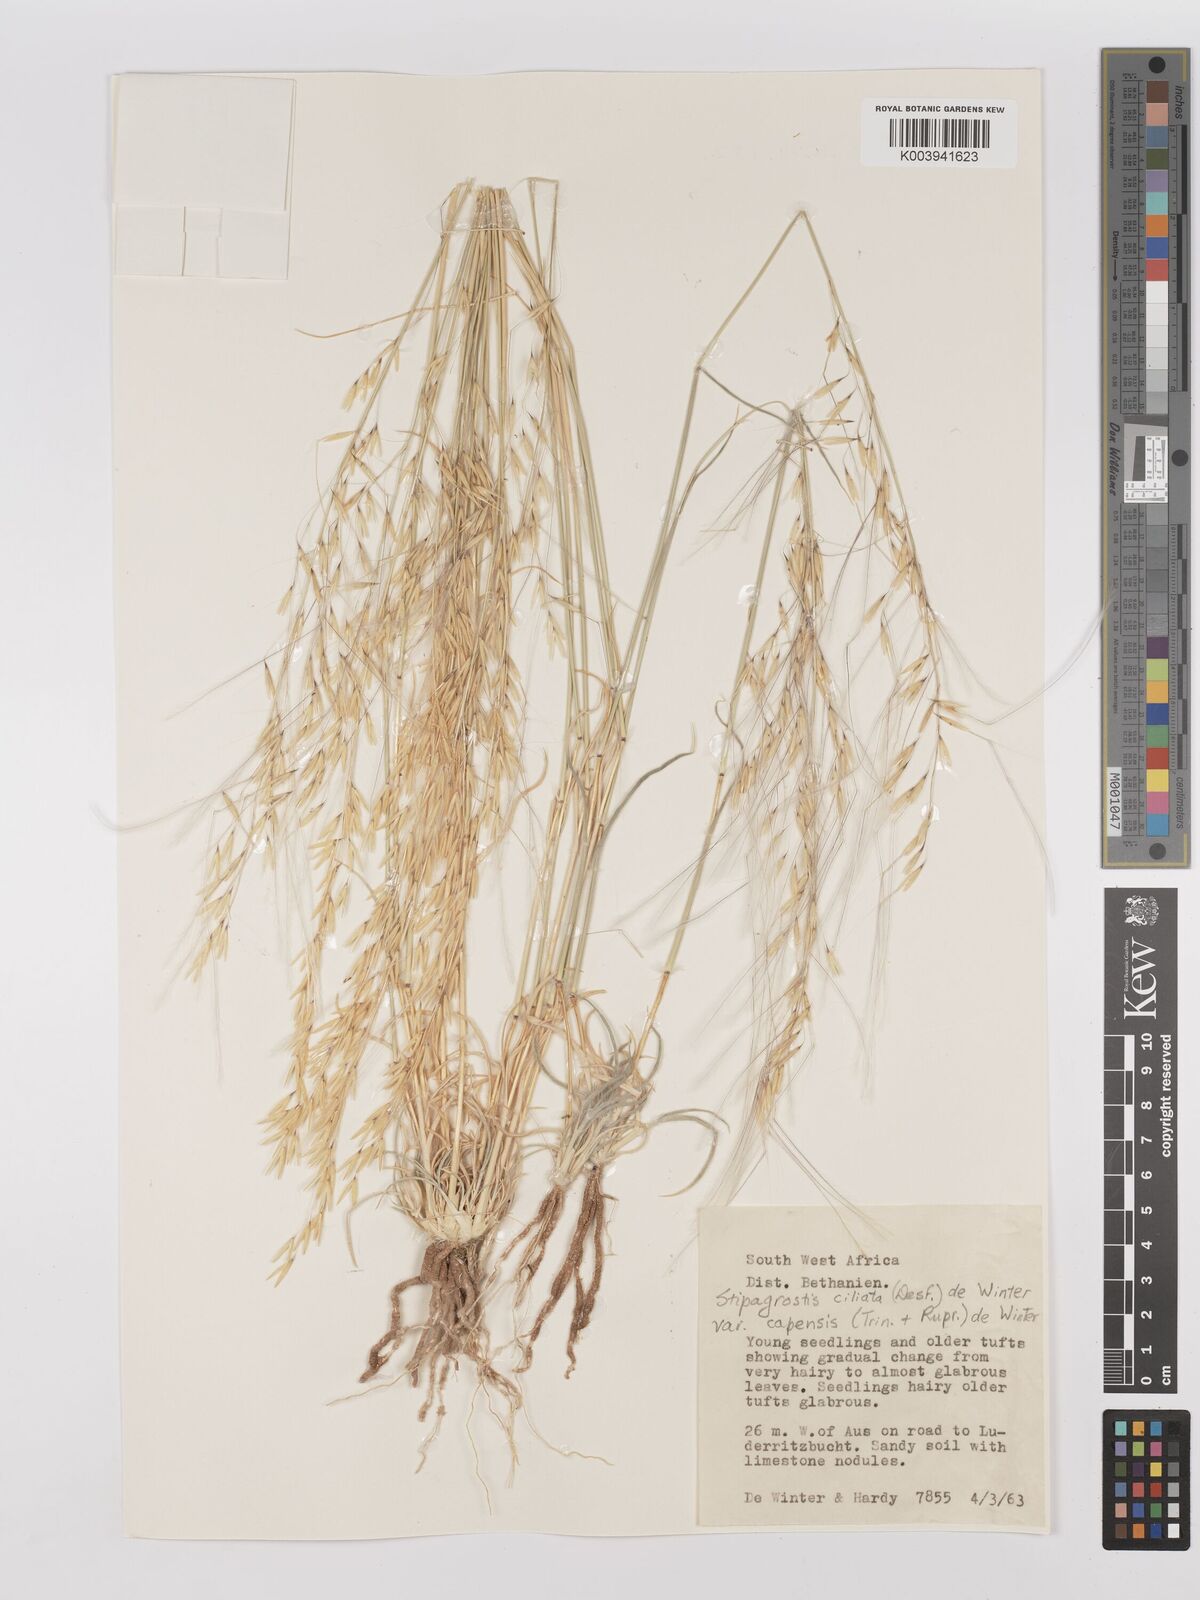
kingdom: Plantae
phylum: Tracheophyta
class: Liliopsida
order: Poales
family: Poaceae
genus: Stipagrostis
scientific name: Stipagrostis ciliata
